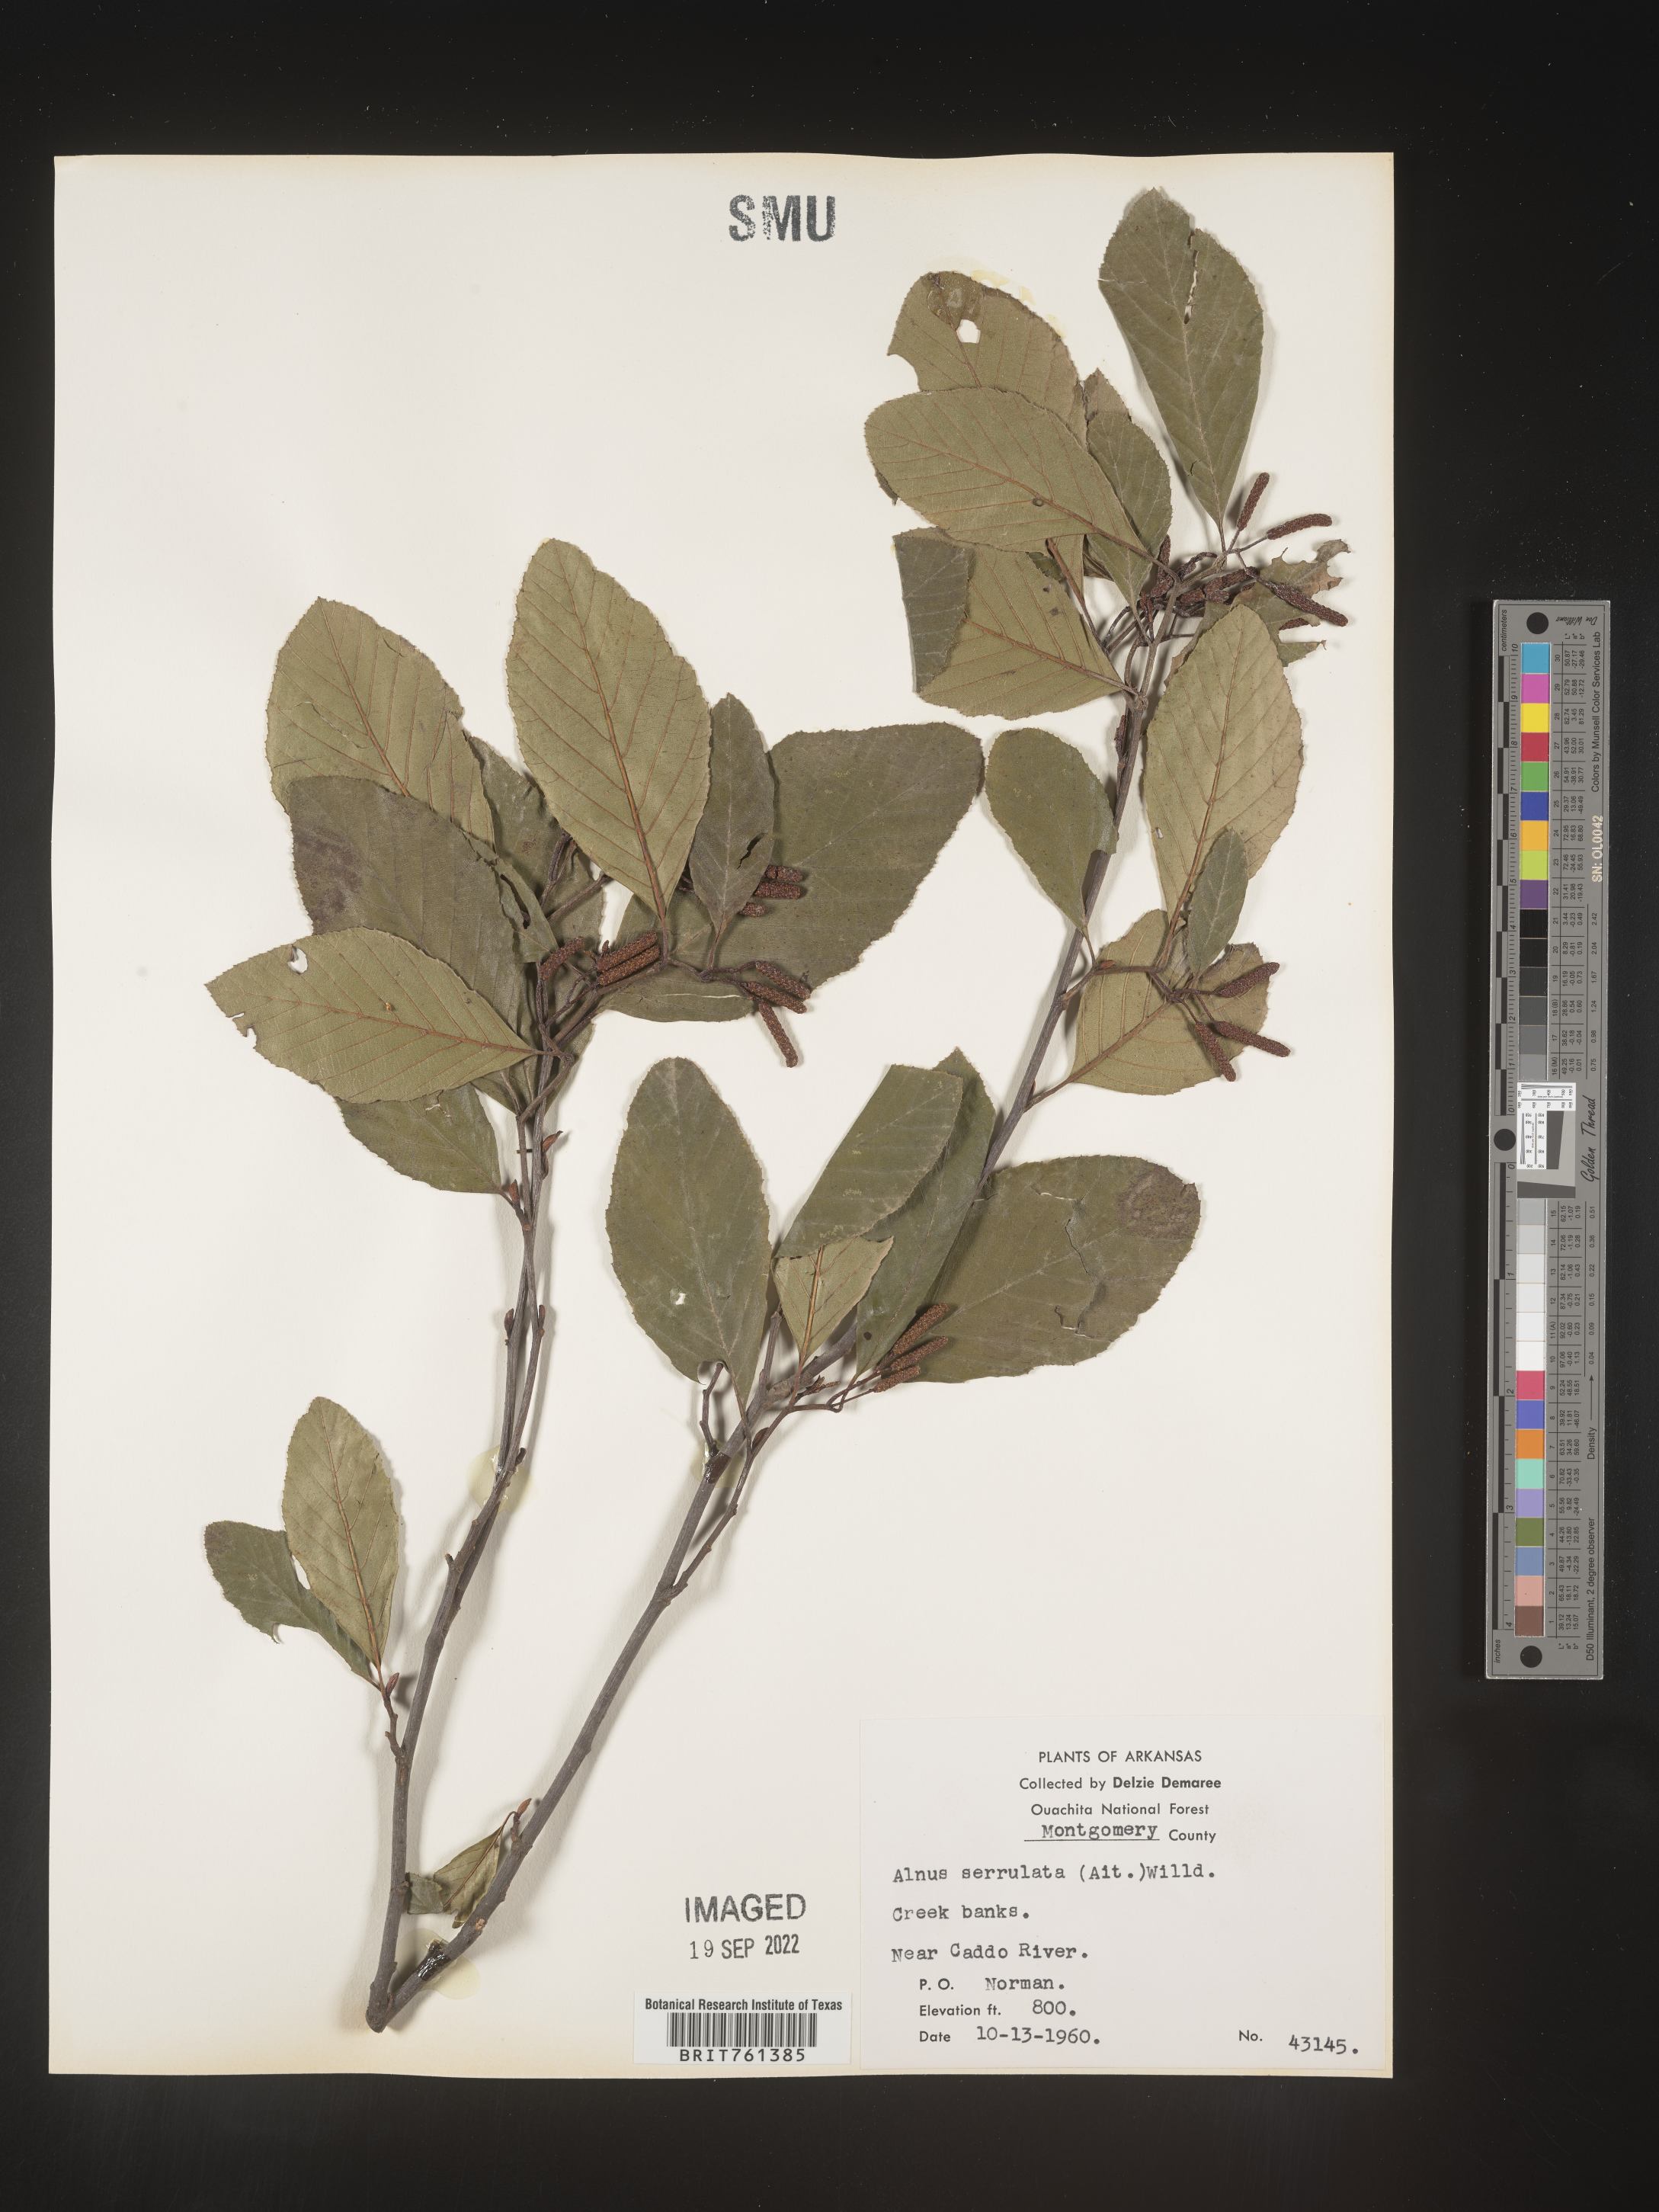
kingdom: Plantae
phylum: Tracheophyta
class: Magnoliopsida
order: Fagales
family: Betulaceae
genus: Alnus
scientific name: Alnus serrulata
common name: Hazel alder
